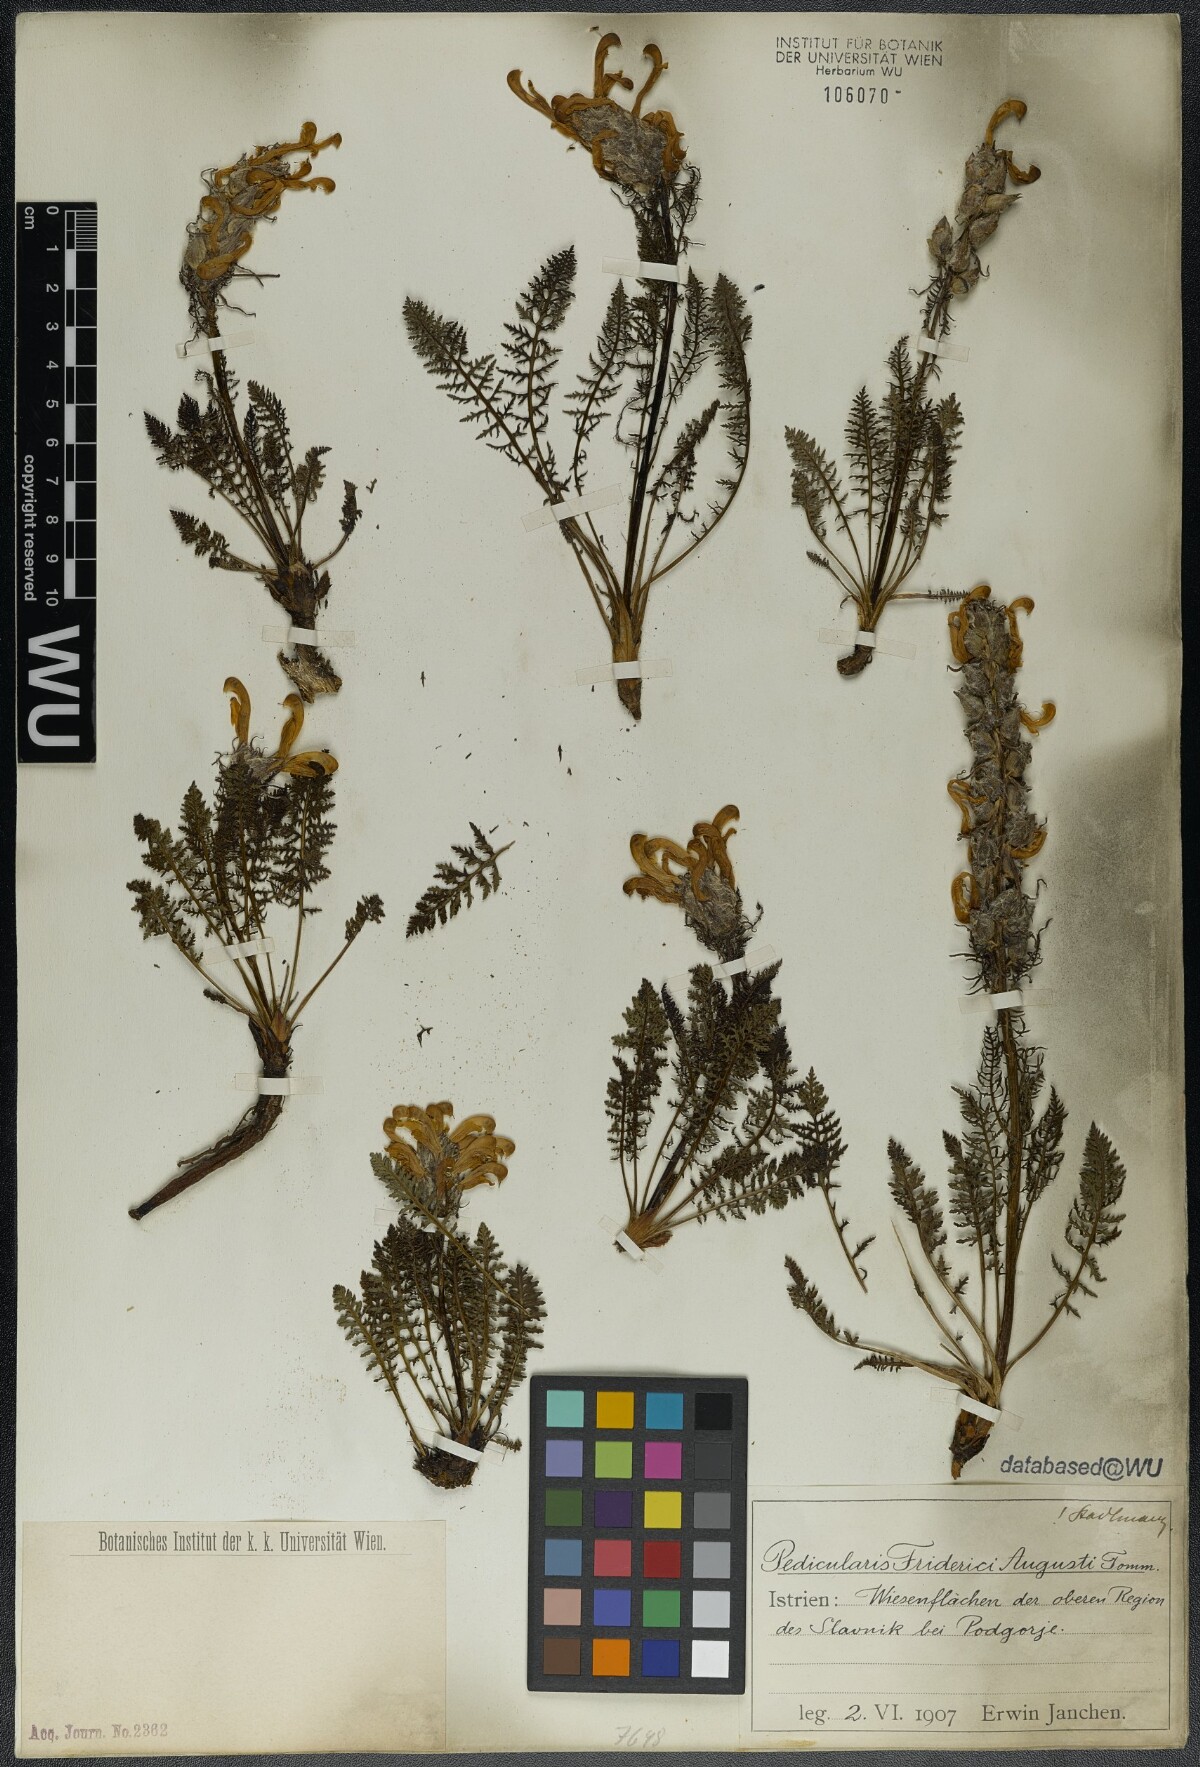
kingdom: Plantae
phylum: Tracheophyta
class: Magnoliopsida
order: Lamiales
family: Orobanchaceae
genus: Pedicularis
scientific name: Pedicularis friderici-augusti
